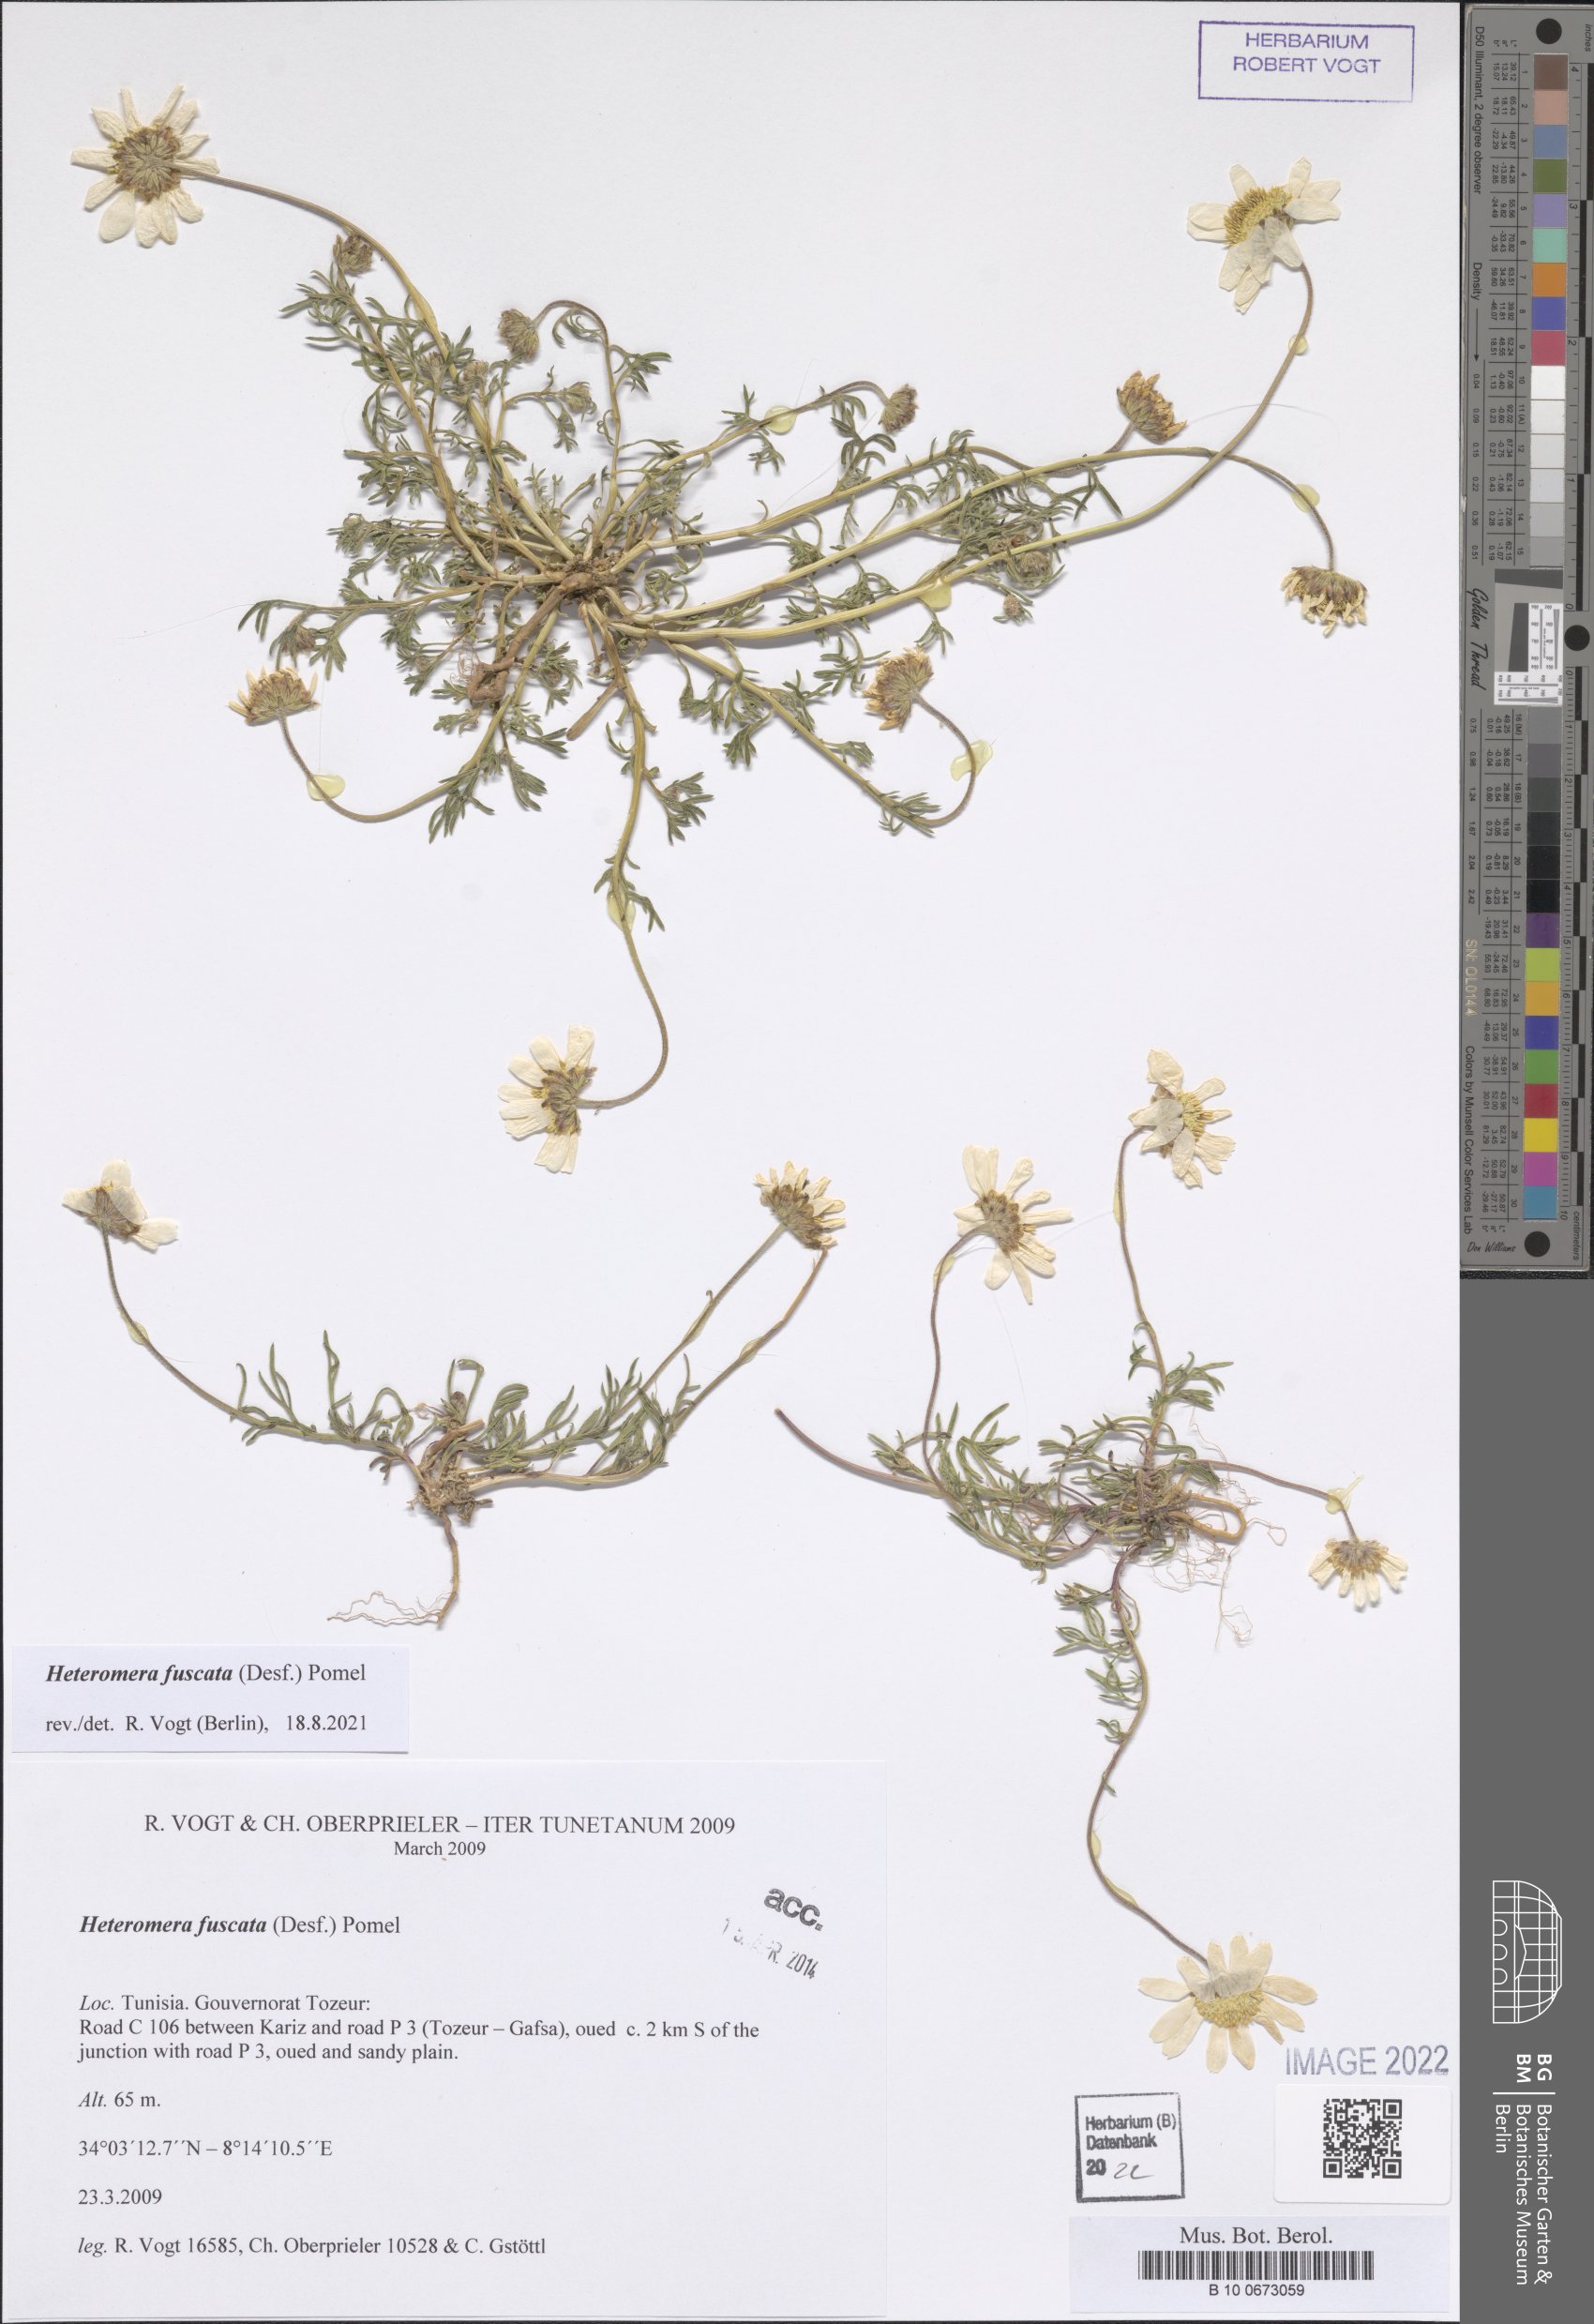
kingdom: Plantae
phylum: Tracheophyta
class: Magnoliopsida
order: Asterales
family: Asteraceae
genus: Heteromera
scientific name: Heteromera fuscata
